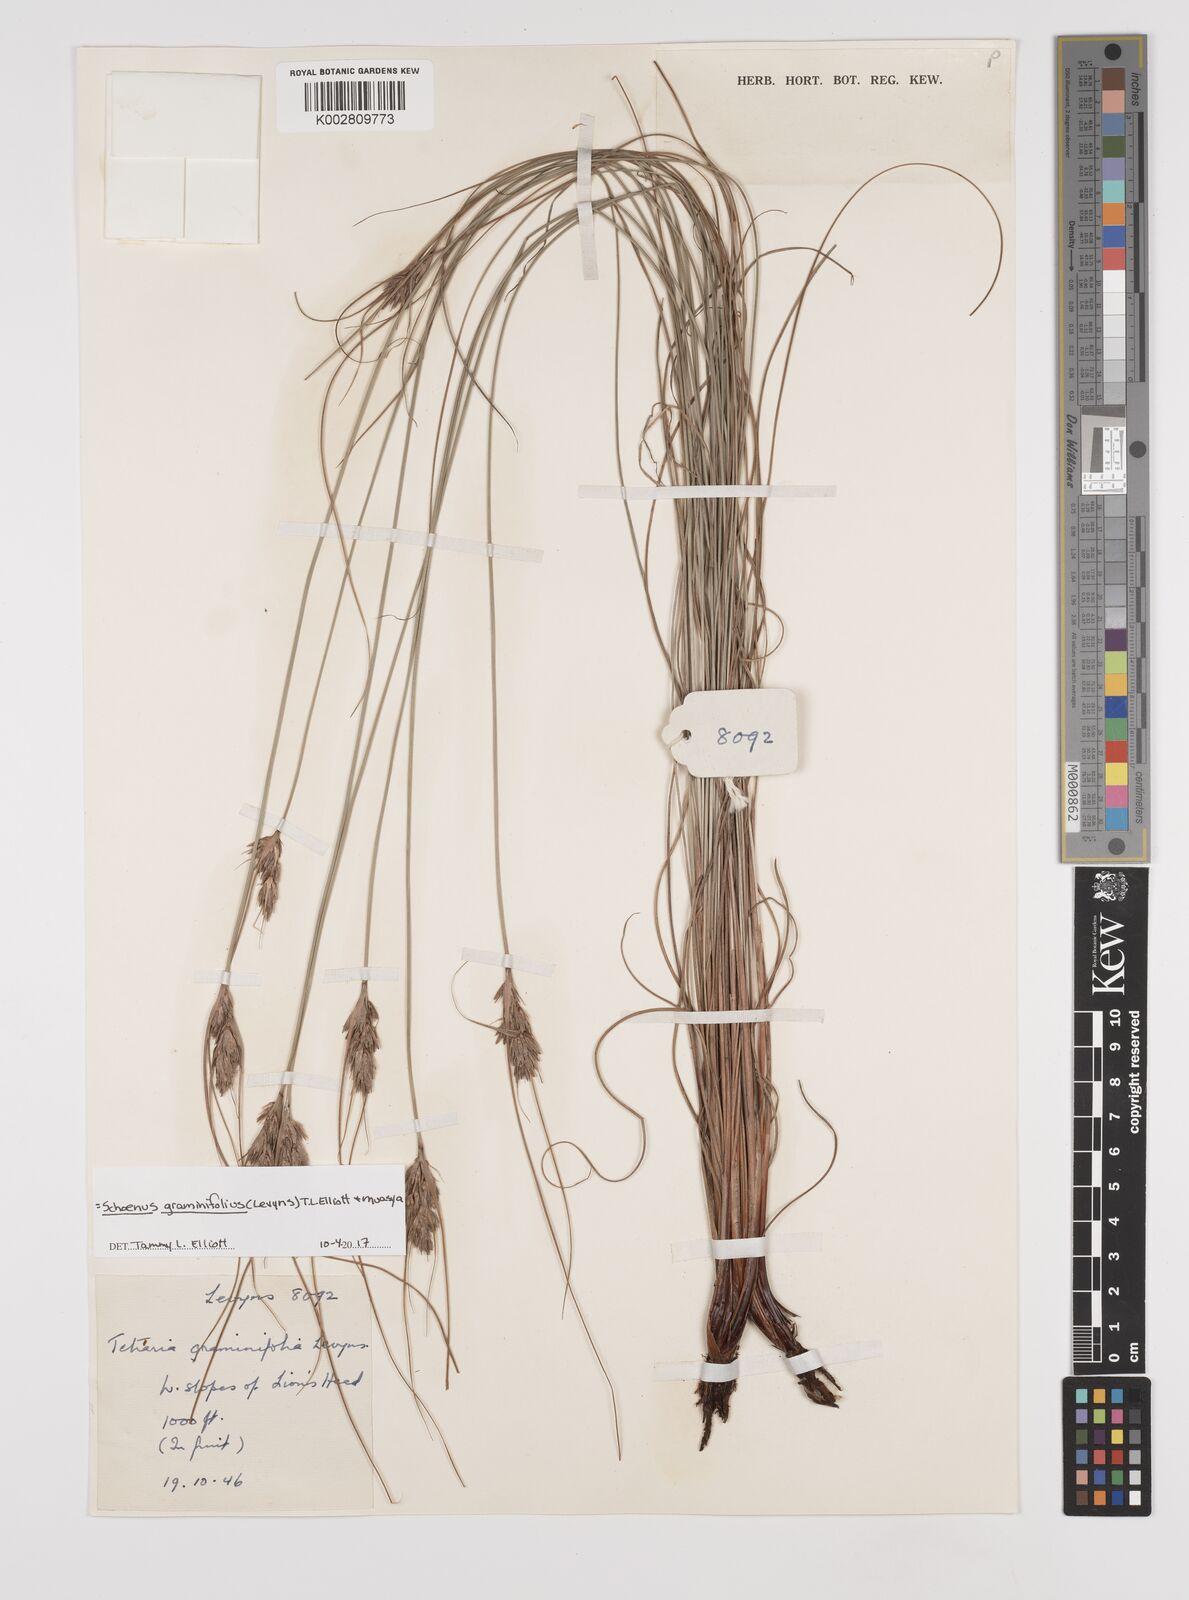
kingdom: Plantae
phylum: Tracheophyta
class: Liliopsida
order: Poales
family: Cyperaceae
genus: Schoenus
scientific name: Schoenus graminifolius
